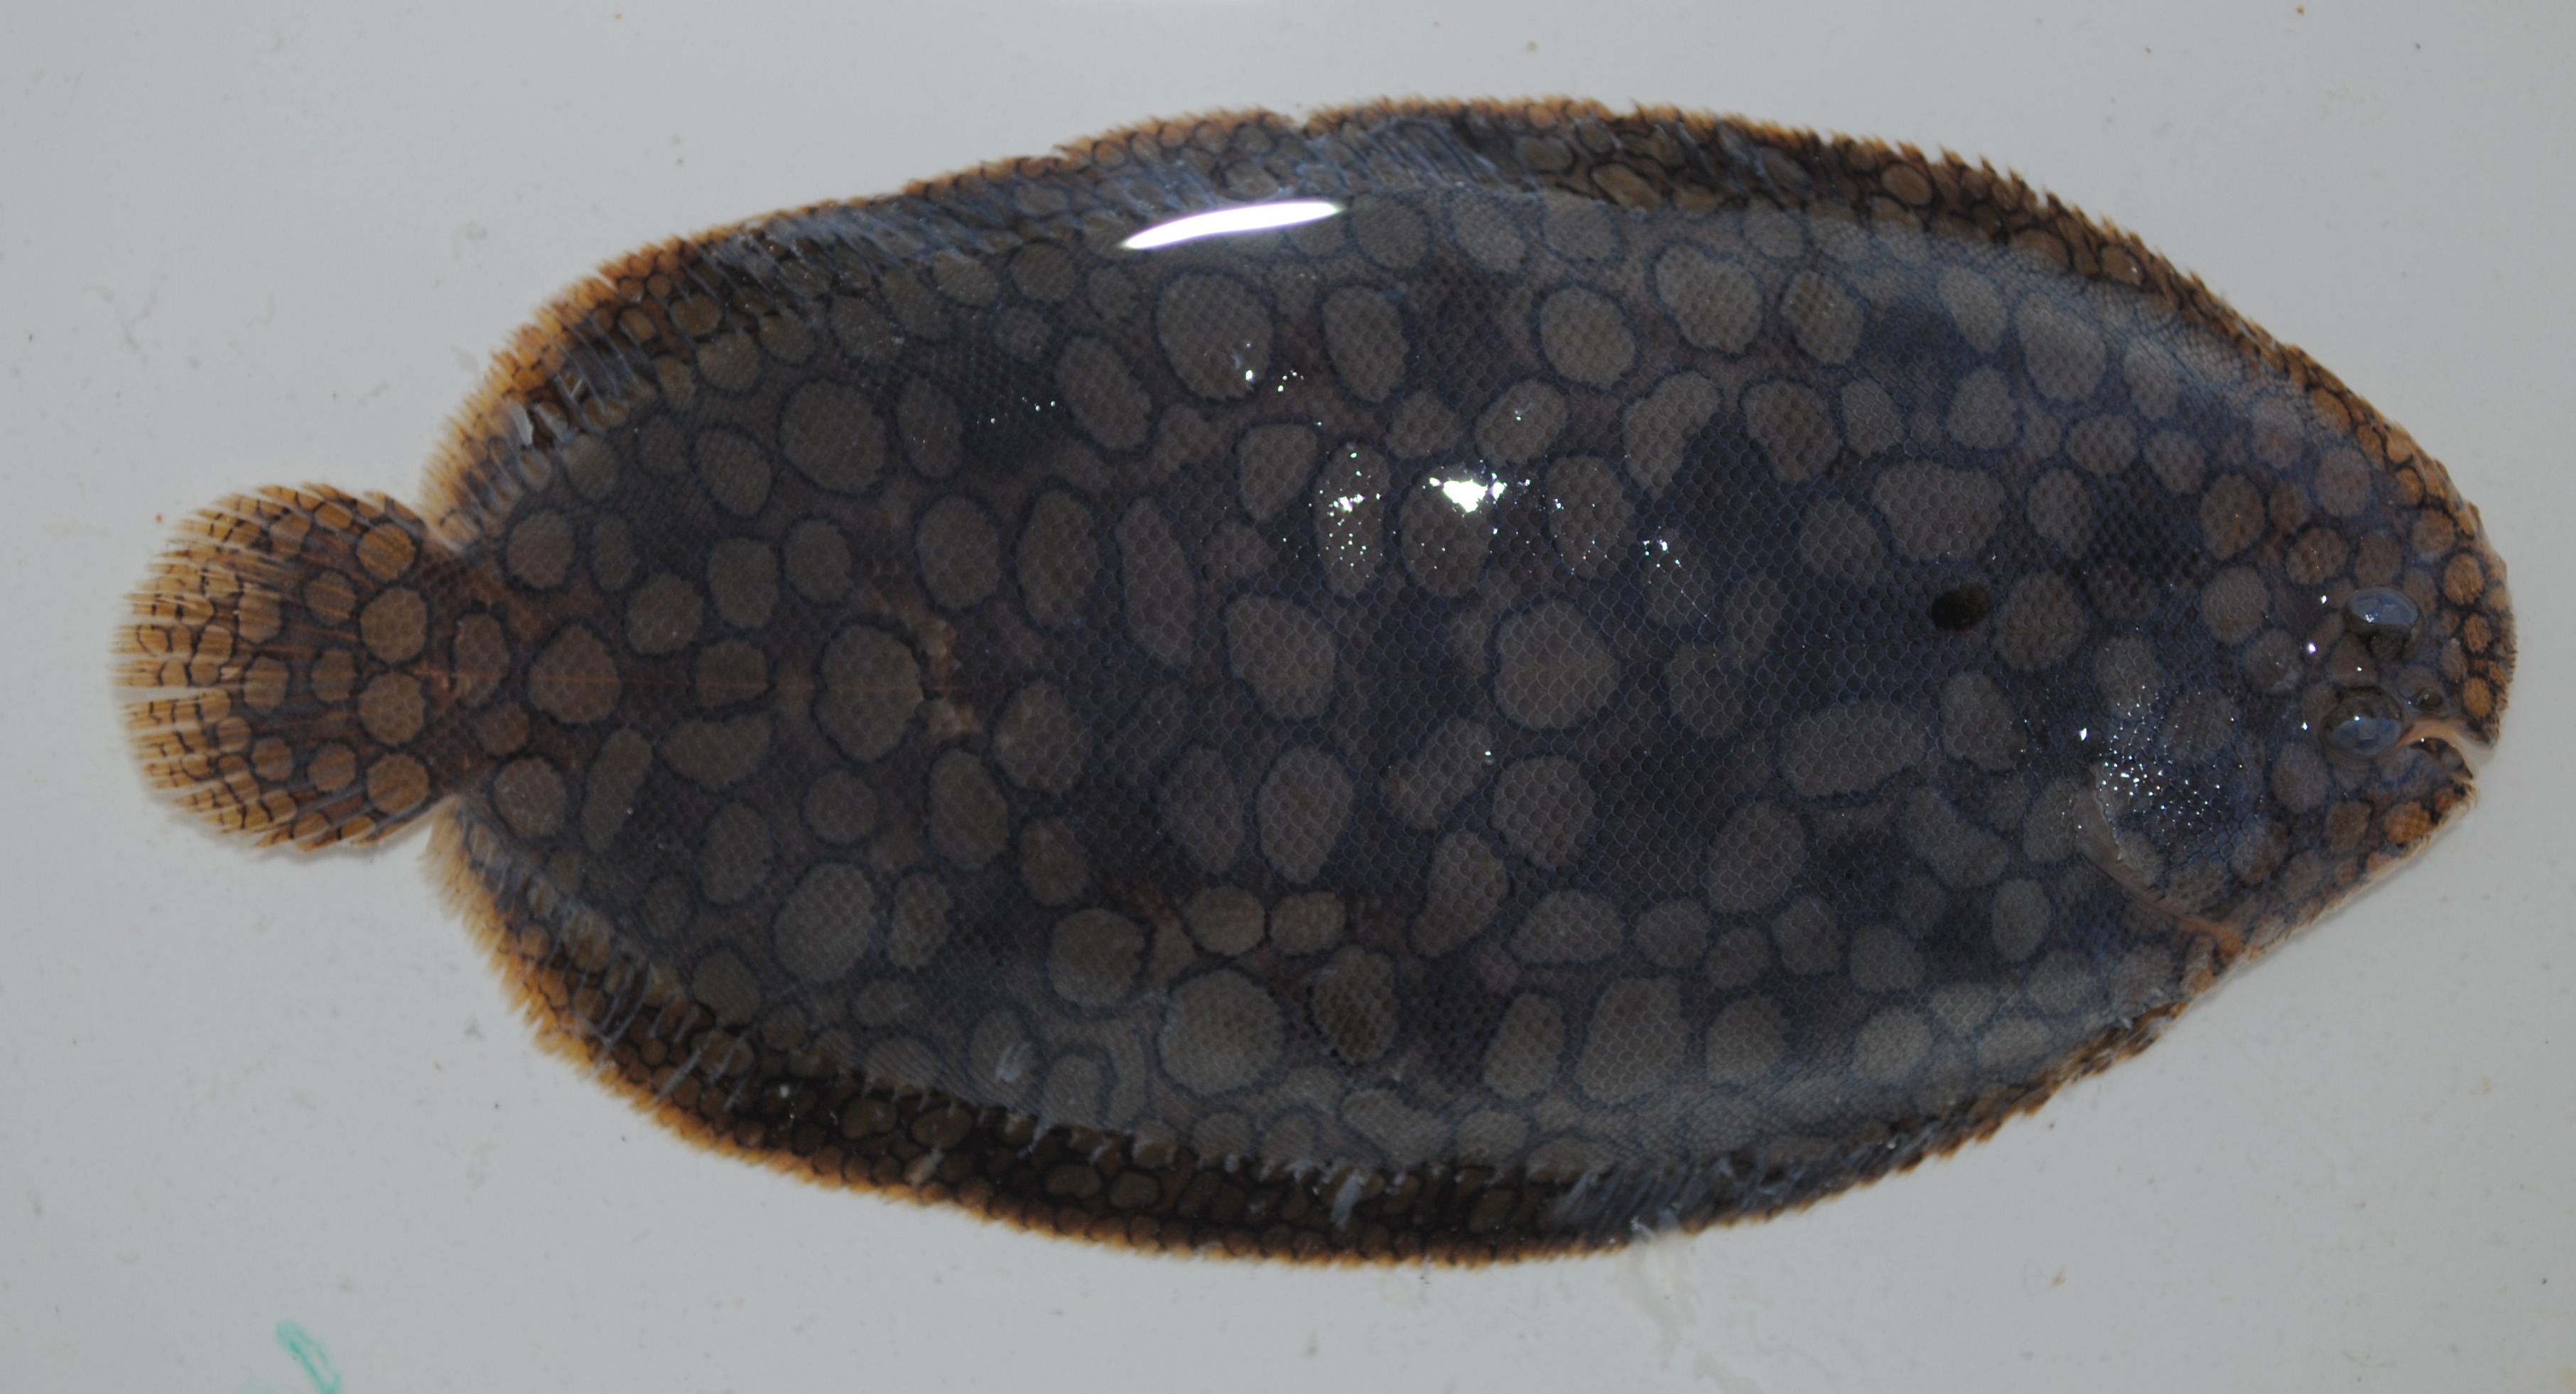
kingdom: Animalia
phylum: Chordata
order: Pleuronectiformes
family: Soleidae
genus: Pardachirus
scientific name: Pardachirus morrowi
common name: Persian carpet sole
